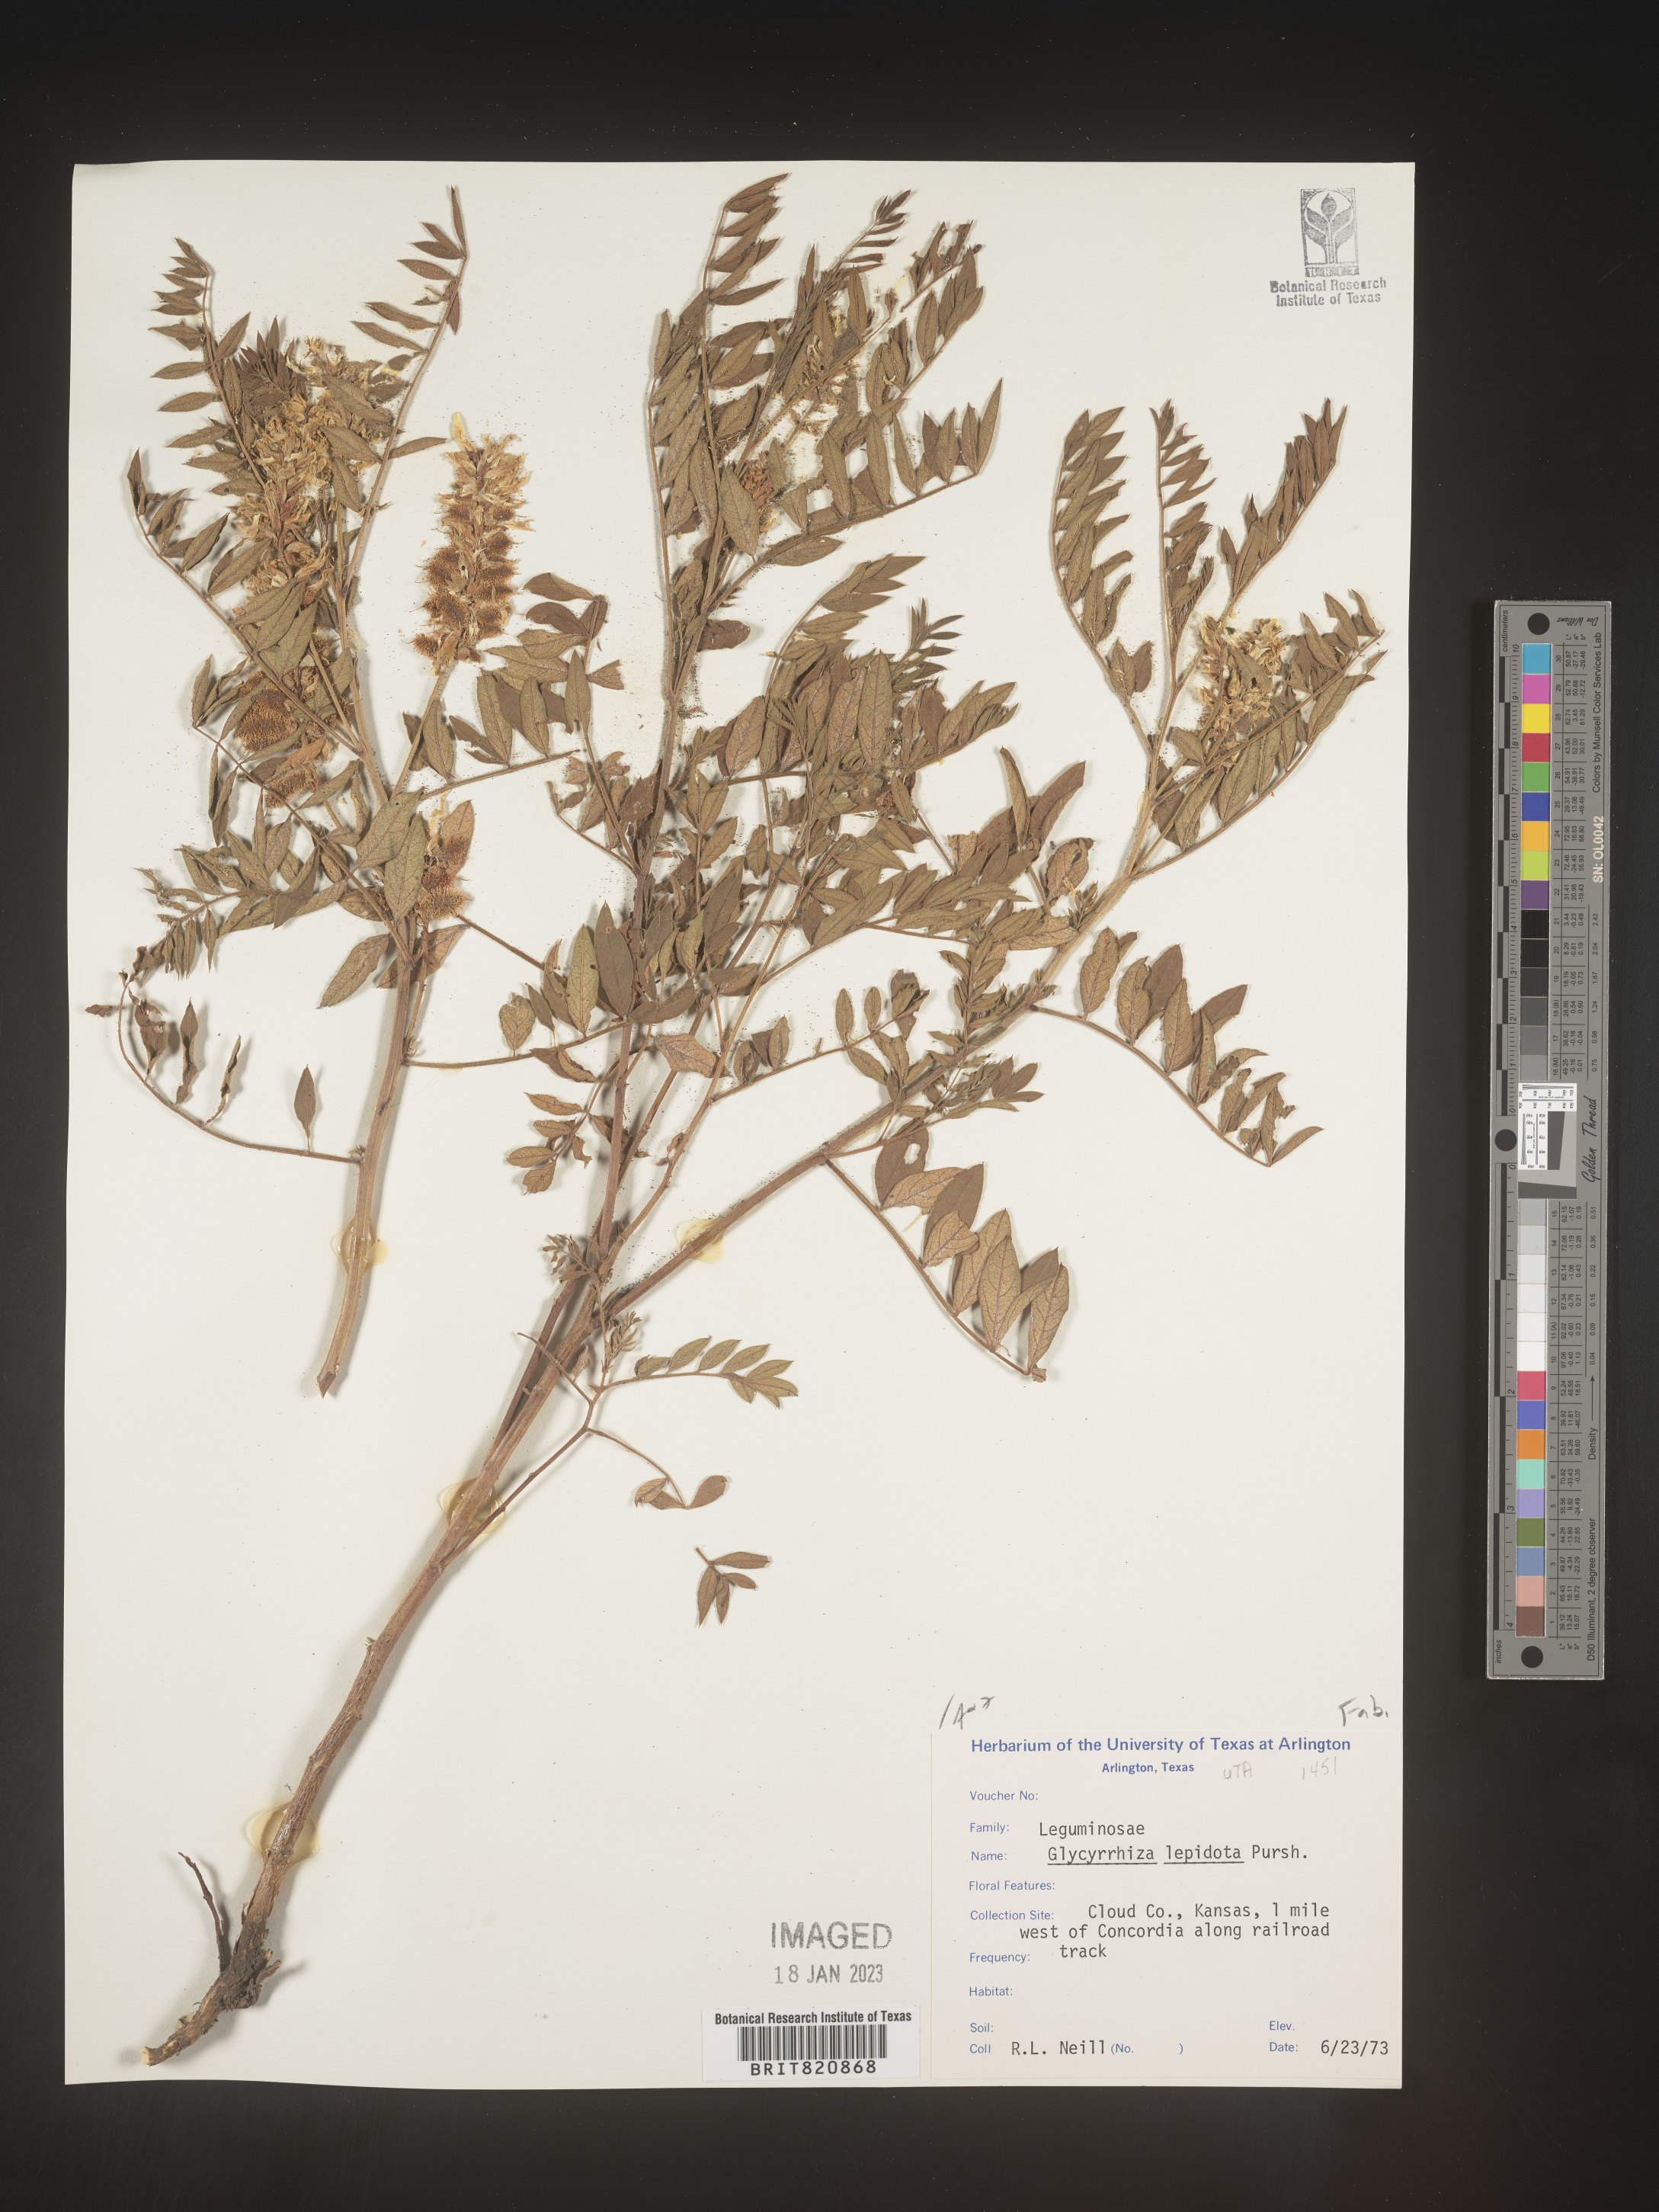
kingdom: Plantae
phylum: Tracheophyta
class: Magnoliopsida
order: Fabales
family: Fabaceae
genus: Glycyrrhiza
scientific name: Glycyrrhiza lepidota
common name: American liquorice
